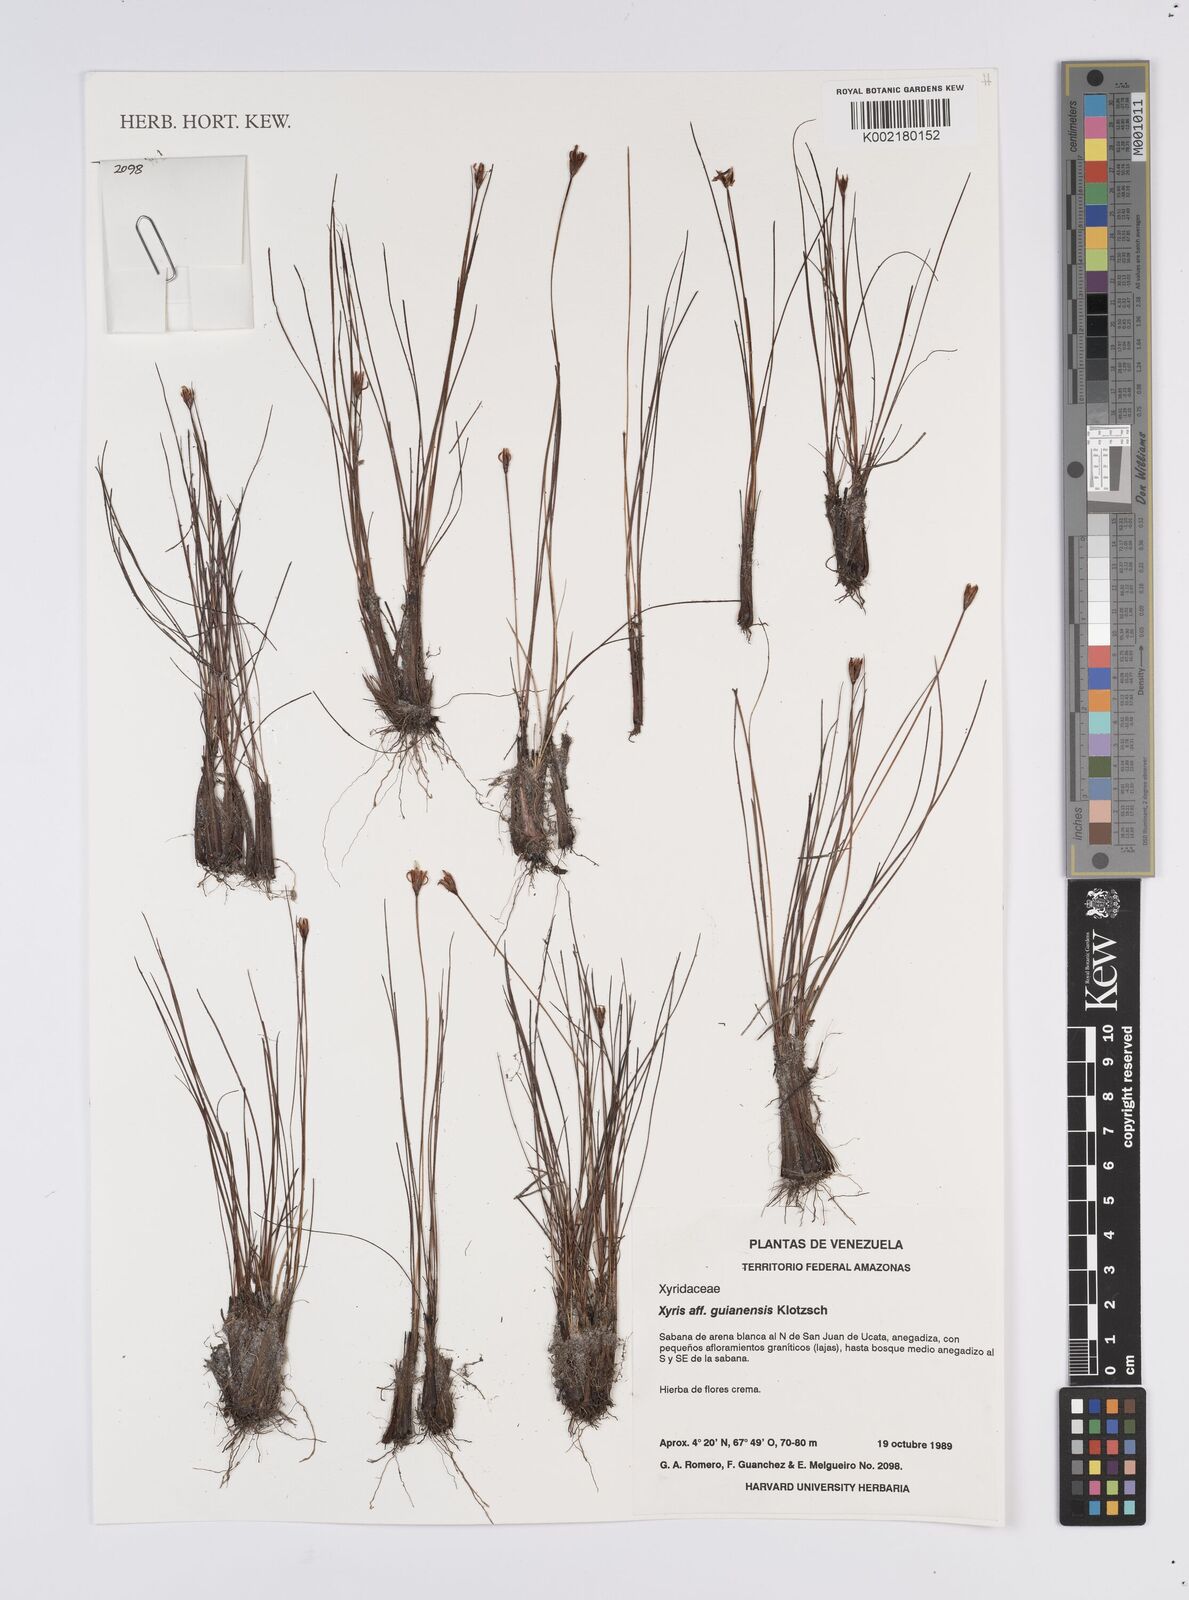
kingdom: Plantae
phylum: Tracheophyta
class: Liliopsida
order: Poales
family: Xyridaceae
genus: Xyris
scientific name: Xyris jupicai
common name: Richard's yelloweyed grass
